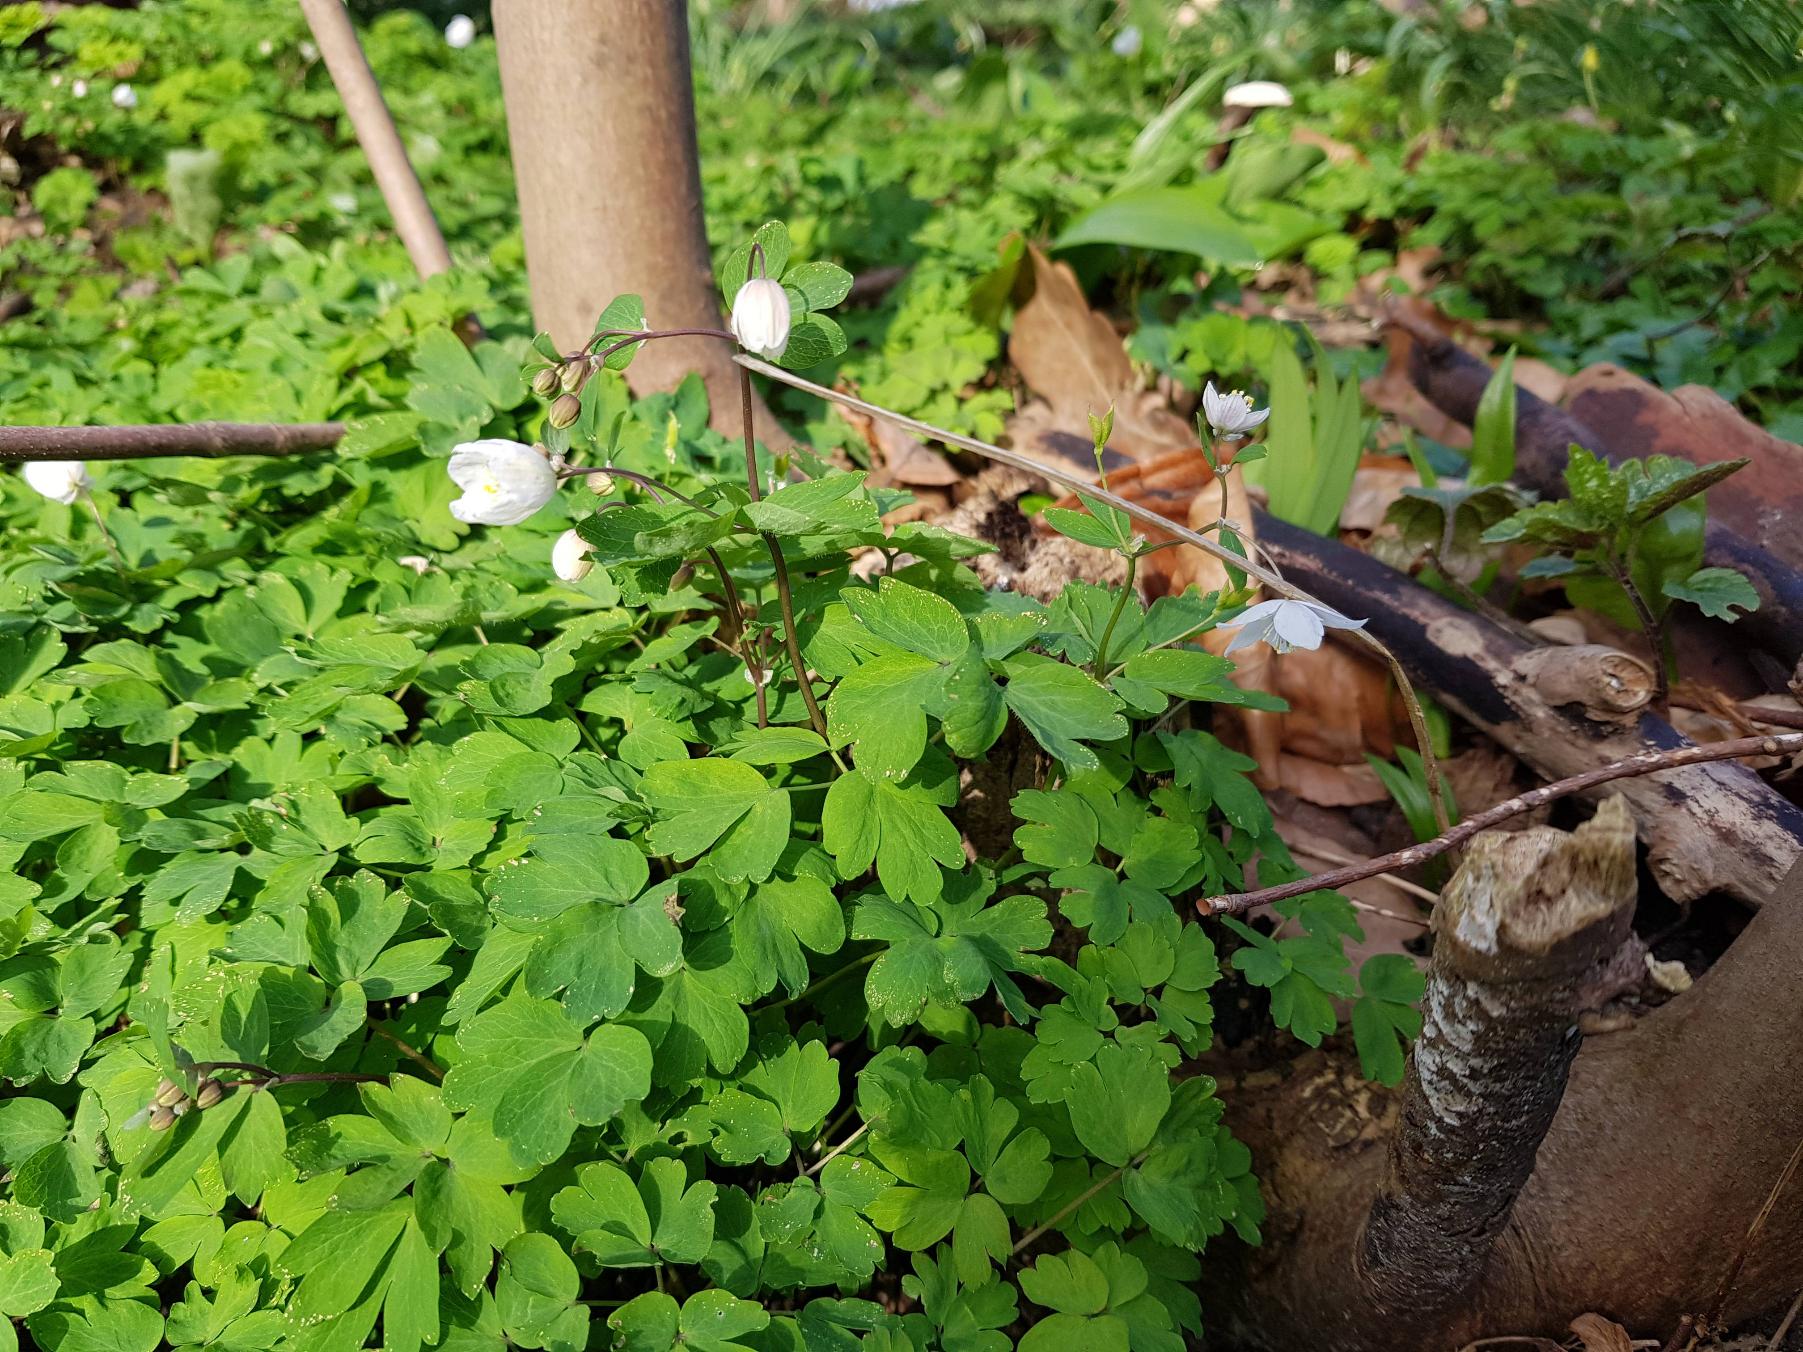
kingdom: Plantae
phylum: Tracheophyta
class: Magnoliopsida
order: Ranunculales
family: Ranunculaceae
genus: Isopyrum
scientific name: Isopyrum thalictroides
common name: Frøstjerneanemone
